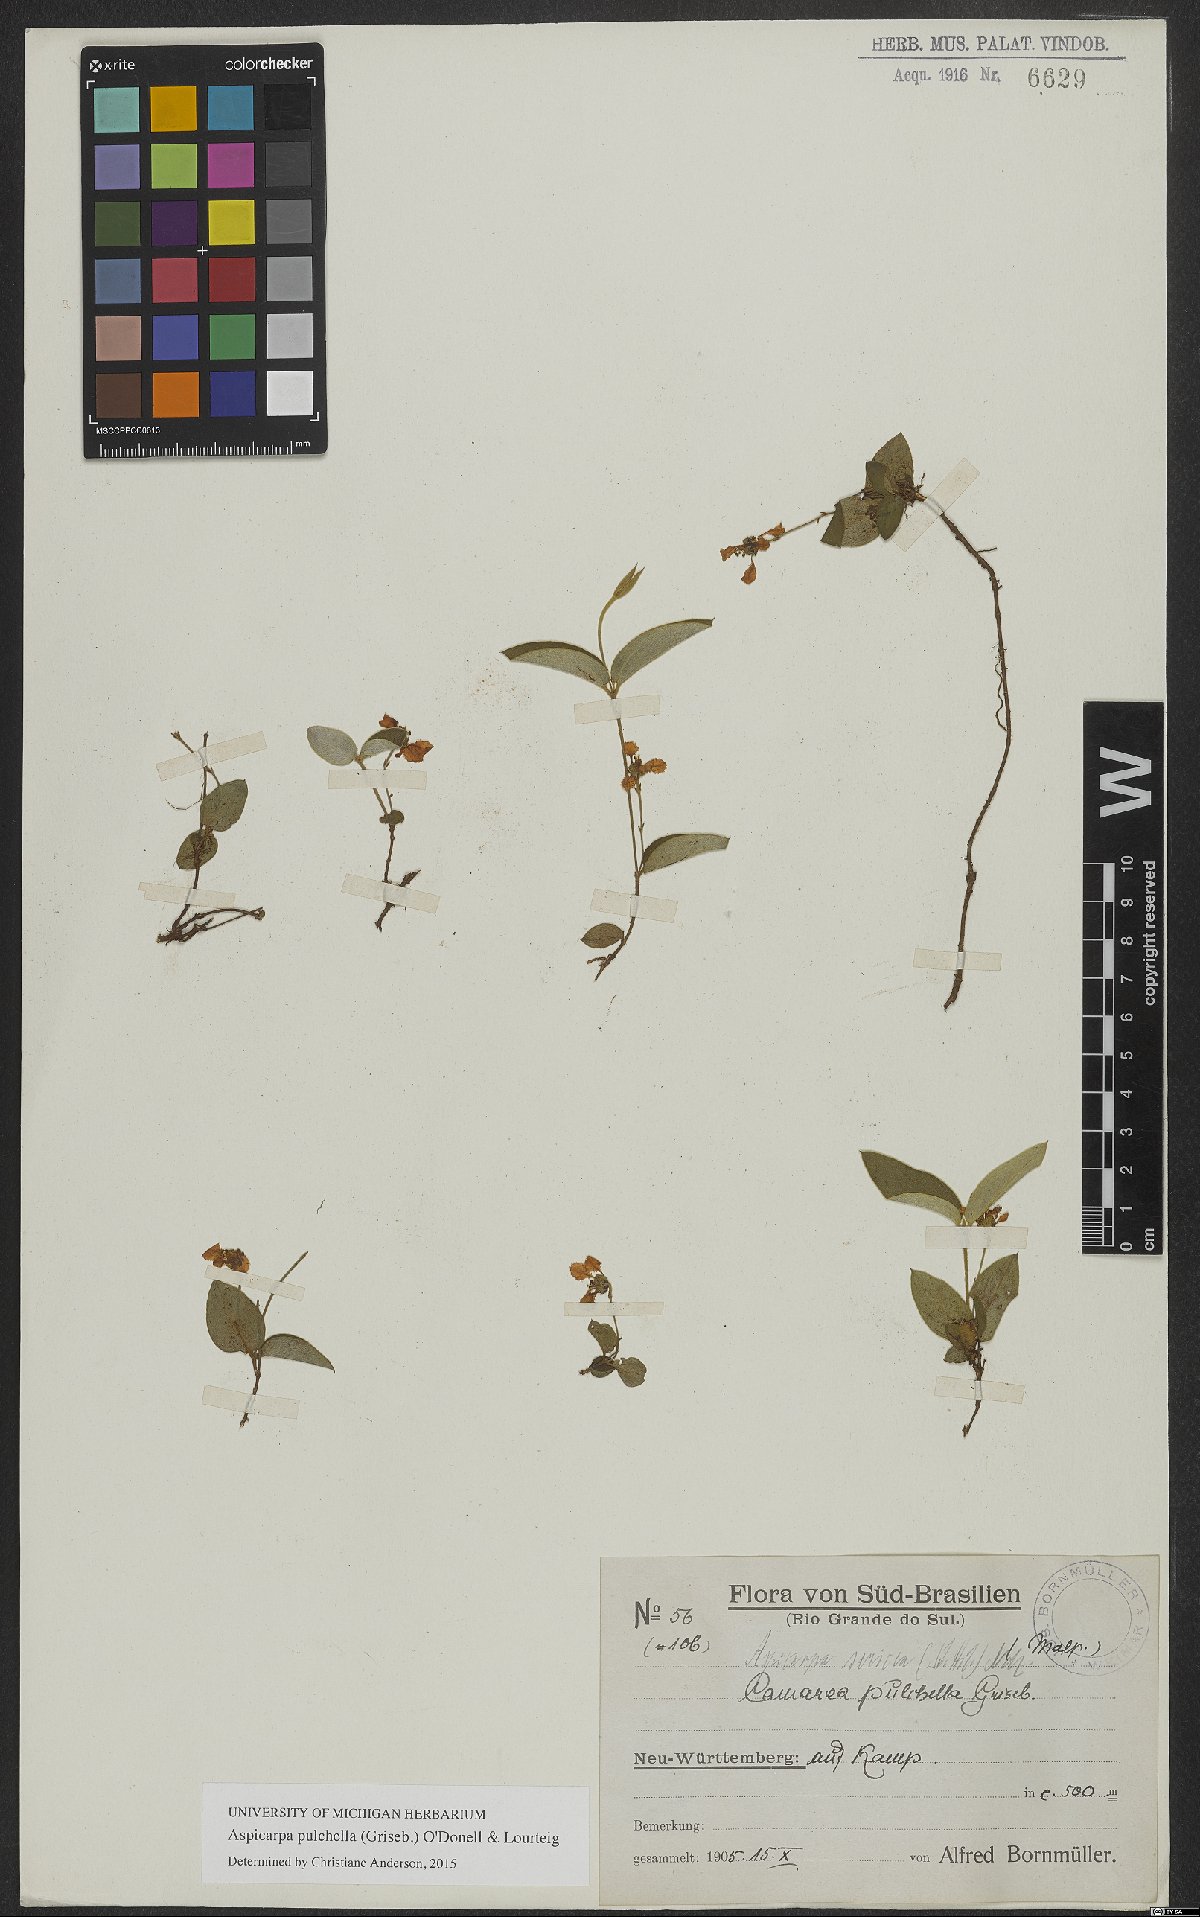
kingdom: Plantae
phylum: Tracheophyta
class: Magnoliopsida
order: Malpighiales
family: Malpighiaceae
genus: Aspicarpa
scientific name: Aspicarpa pulchella
